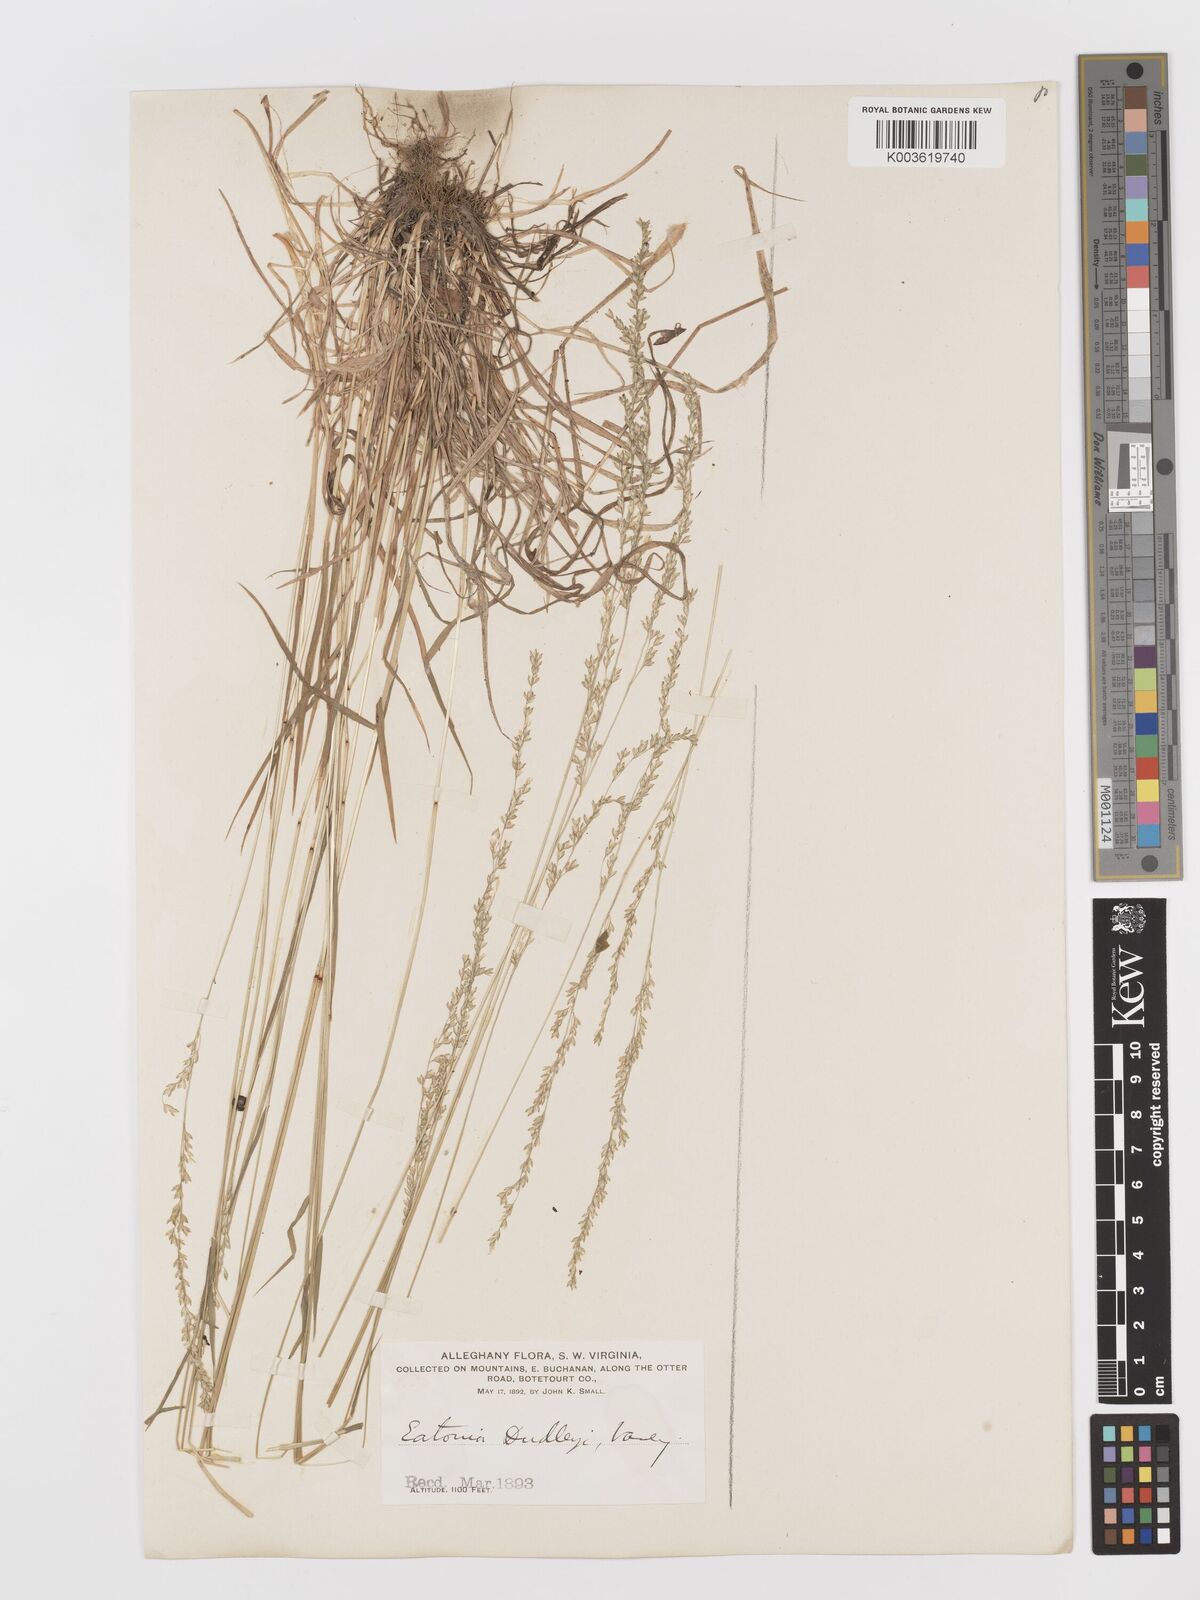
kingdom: Plantae
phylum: Tracheophyta
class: Liliopsida
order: Poales
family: Poaceae
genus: Sphenopholis
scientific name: Sphenopholis nitida
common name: Shiny wedgegrass
